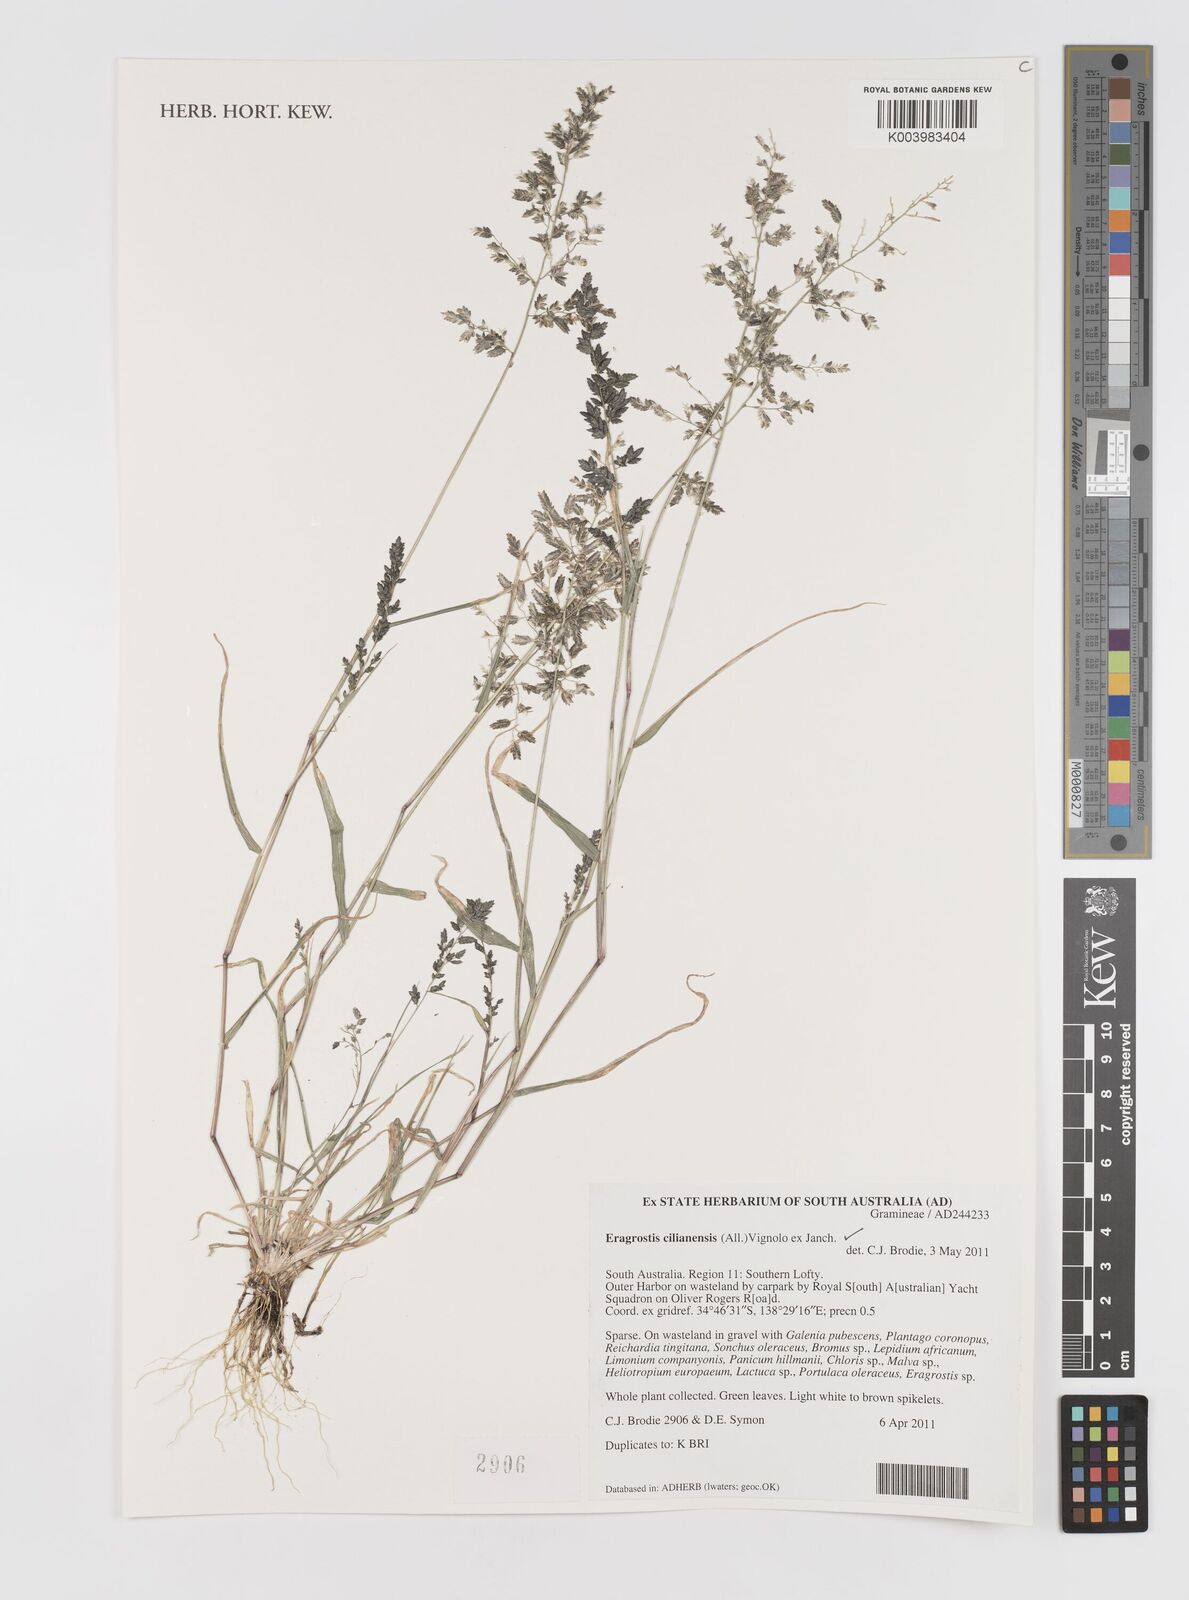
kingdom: Plantae
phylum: Tracheophyta
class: Liliopsida
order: Poales
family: Poaceae
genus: Eragrostis
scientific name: Eragrostis cilianensis
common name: Stinkgrass
